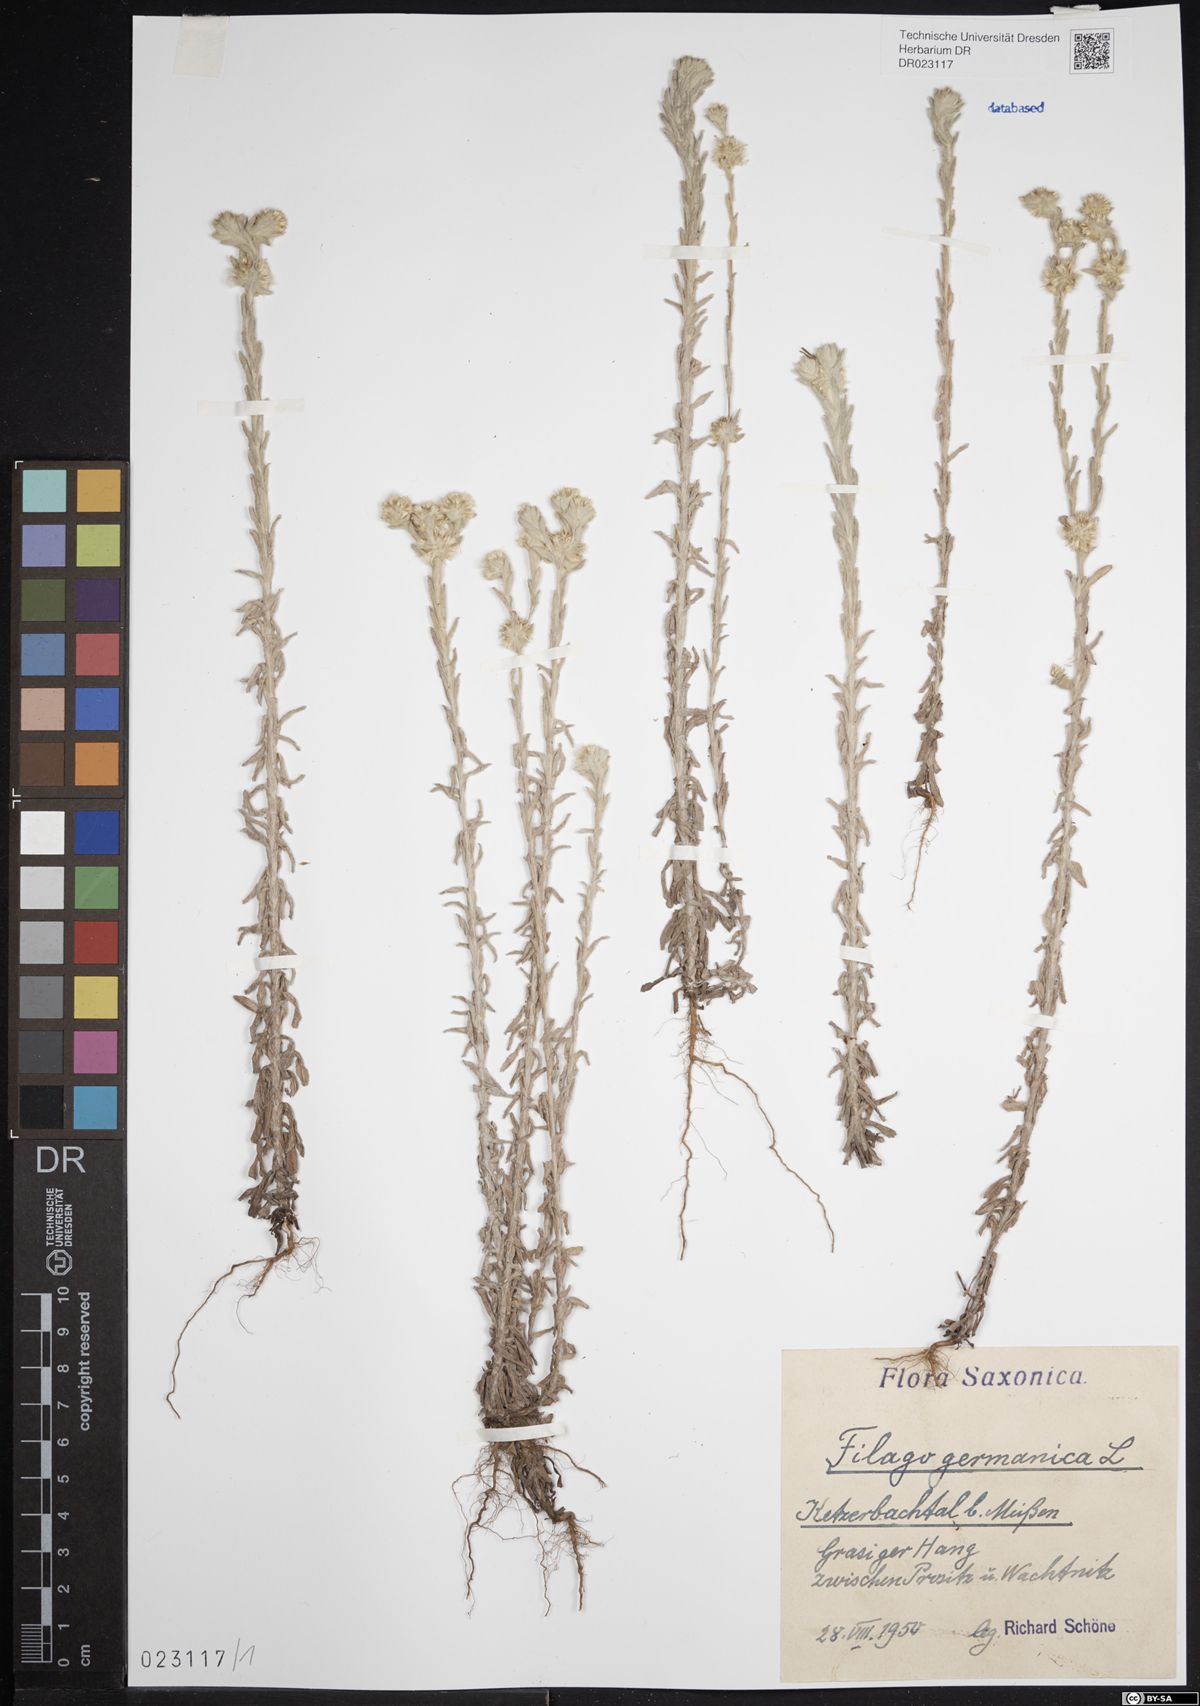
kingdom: Plantae
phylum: Tracheophyta
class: Magnoliopsida
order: Asterales
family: Asteraceae
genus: Filago
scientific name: Filago germanica
